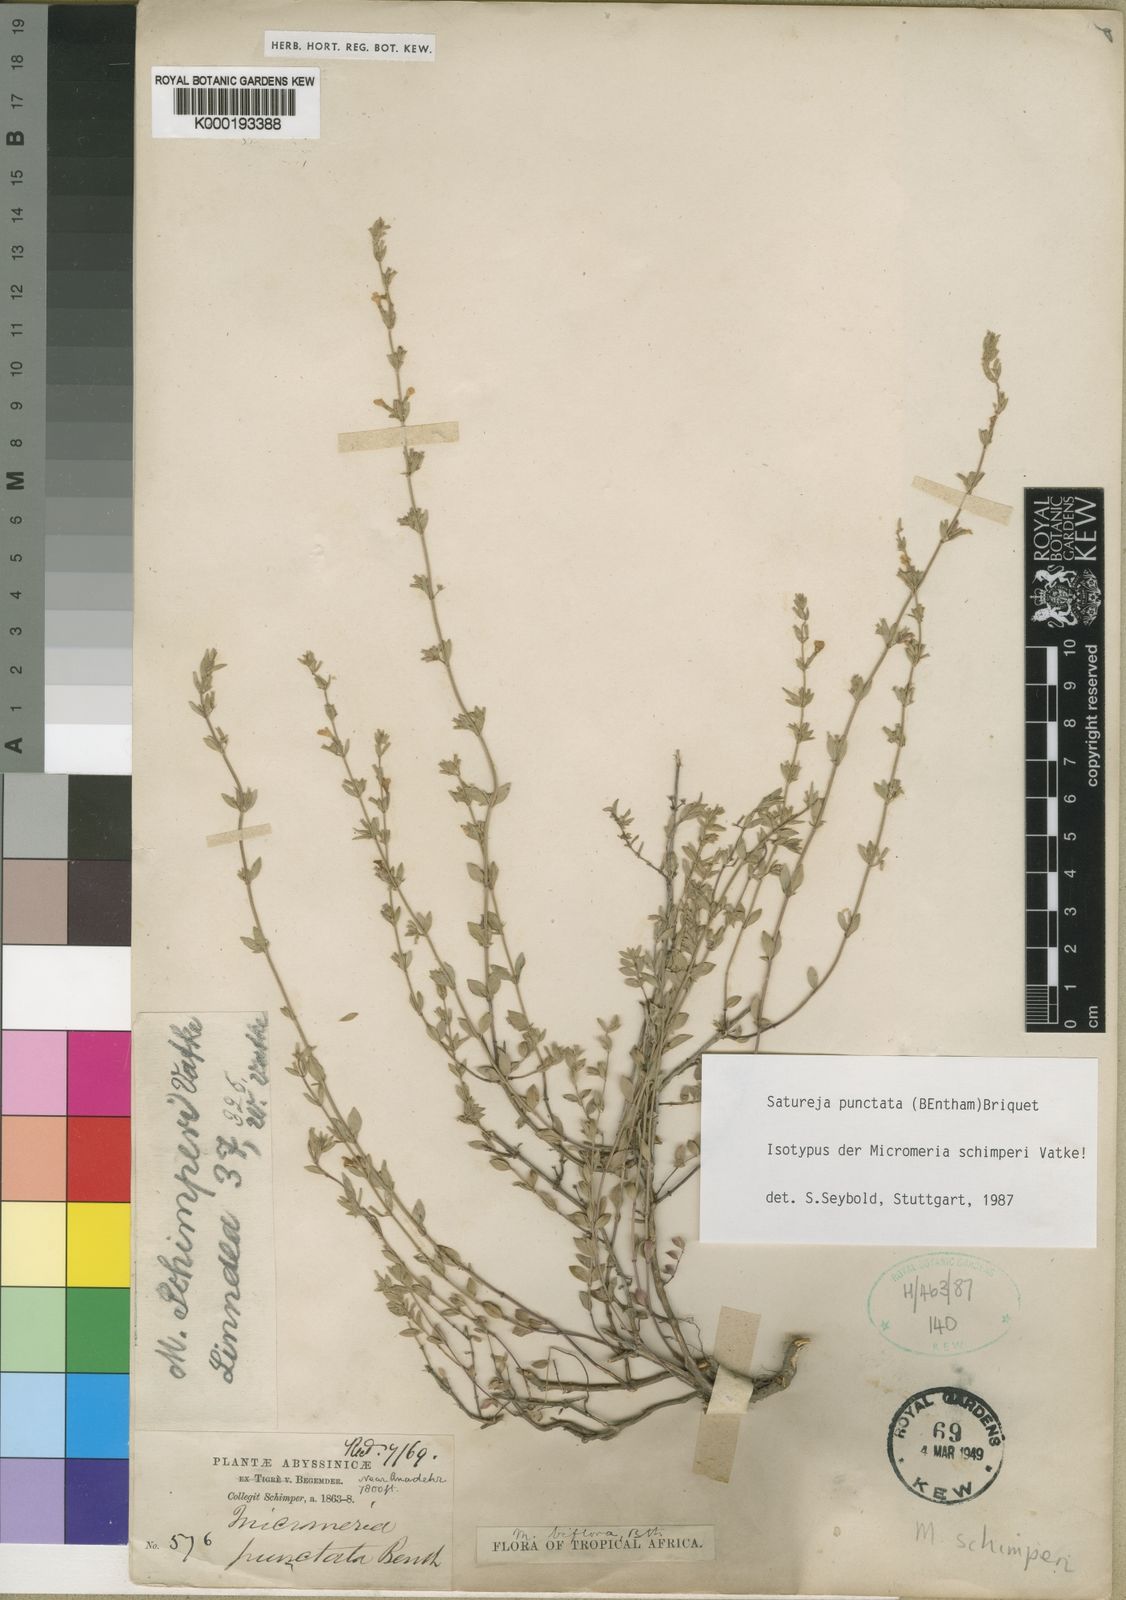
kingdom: Plantae
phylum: Tracheophyta
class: Magnoliopsida
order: Lamiales
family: Lamiaceae
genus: Micromeria
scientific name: Micromeria imbricata
